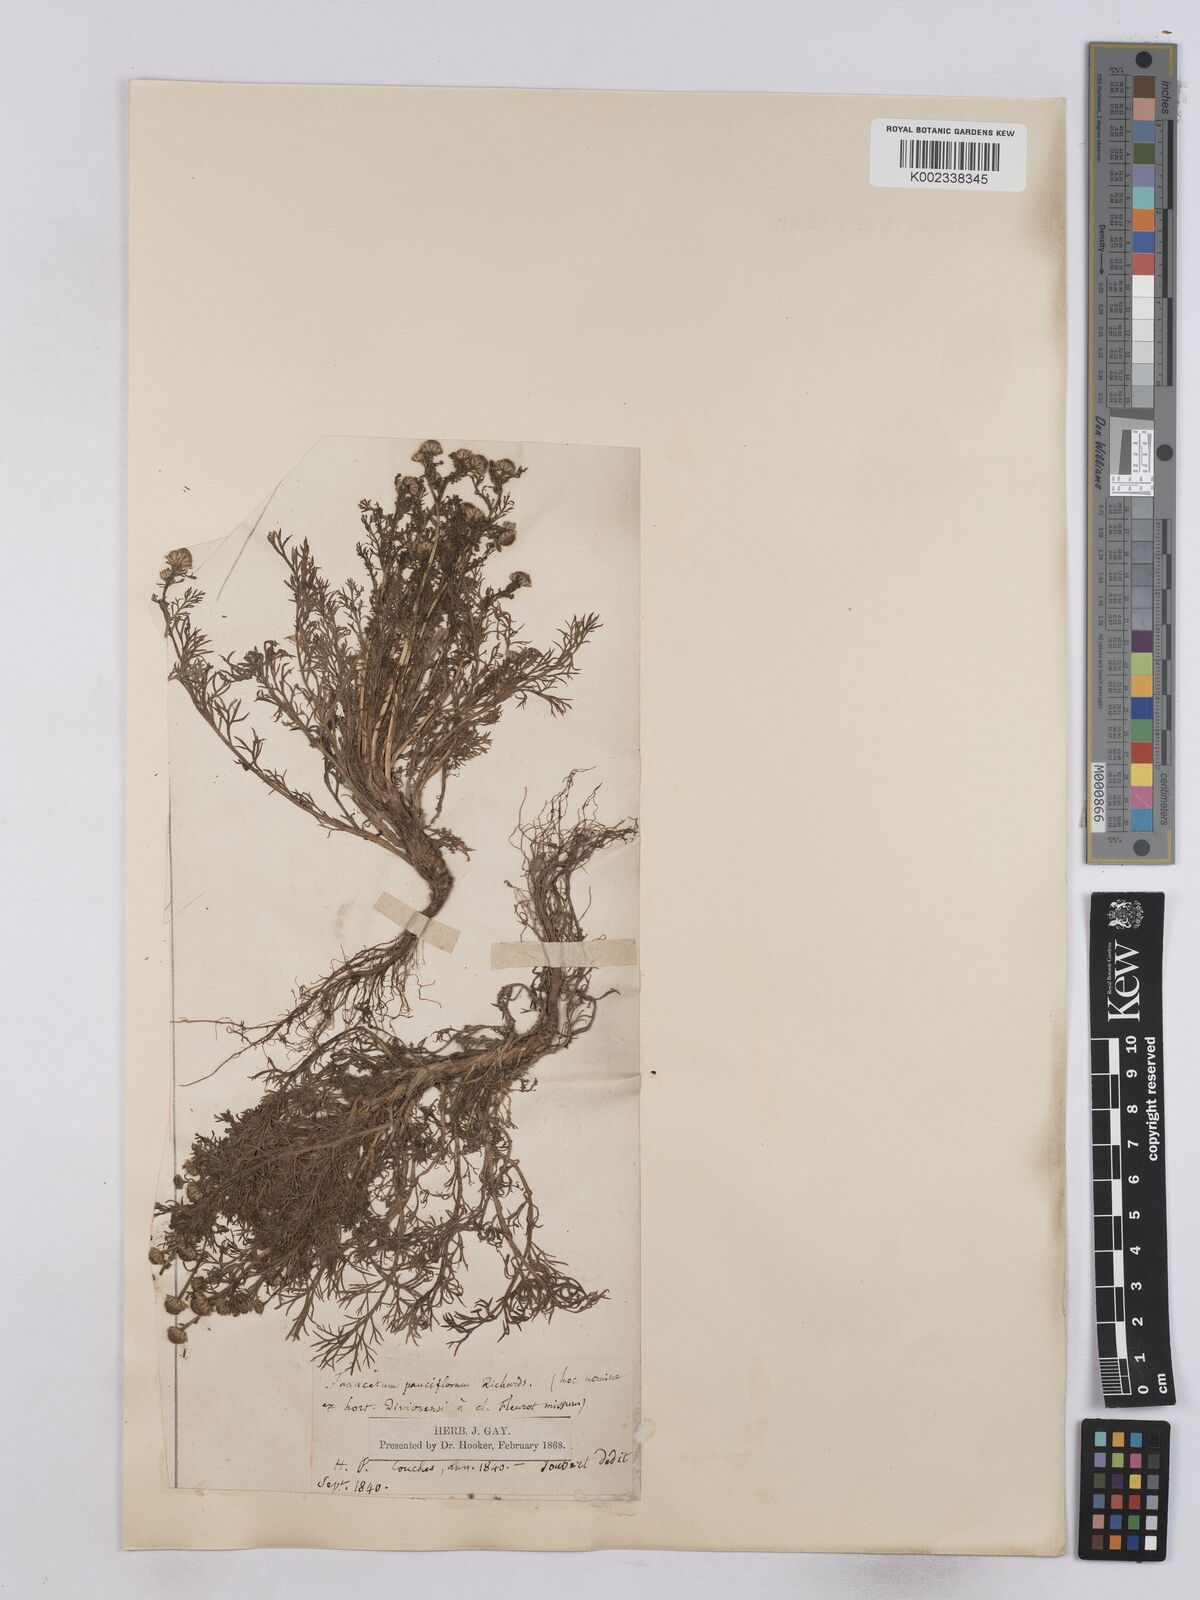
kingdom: Plantae
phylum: Tracheophyta
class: Magnoliopsida
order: Asterales
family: Asteraceae
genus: Matricaria
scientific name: Matricaria discoidea
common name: Disc mayweed
